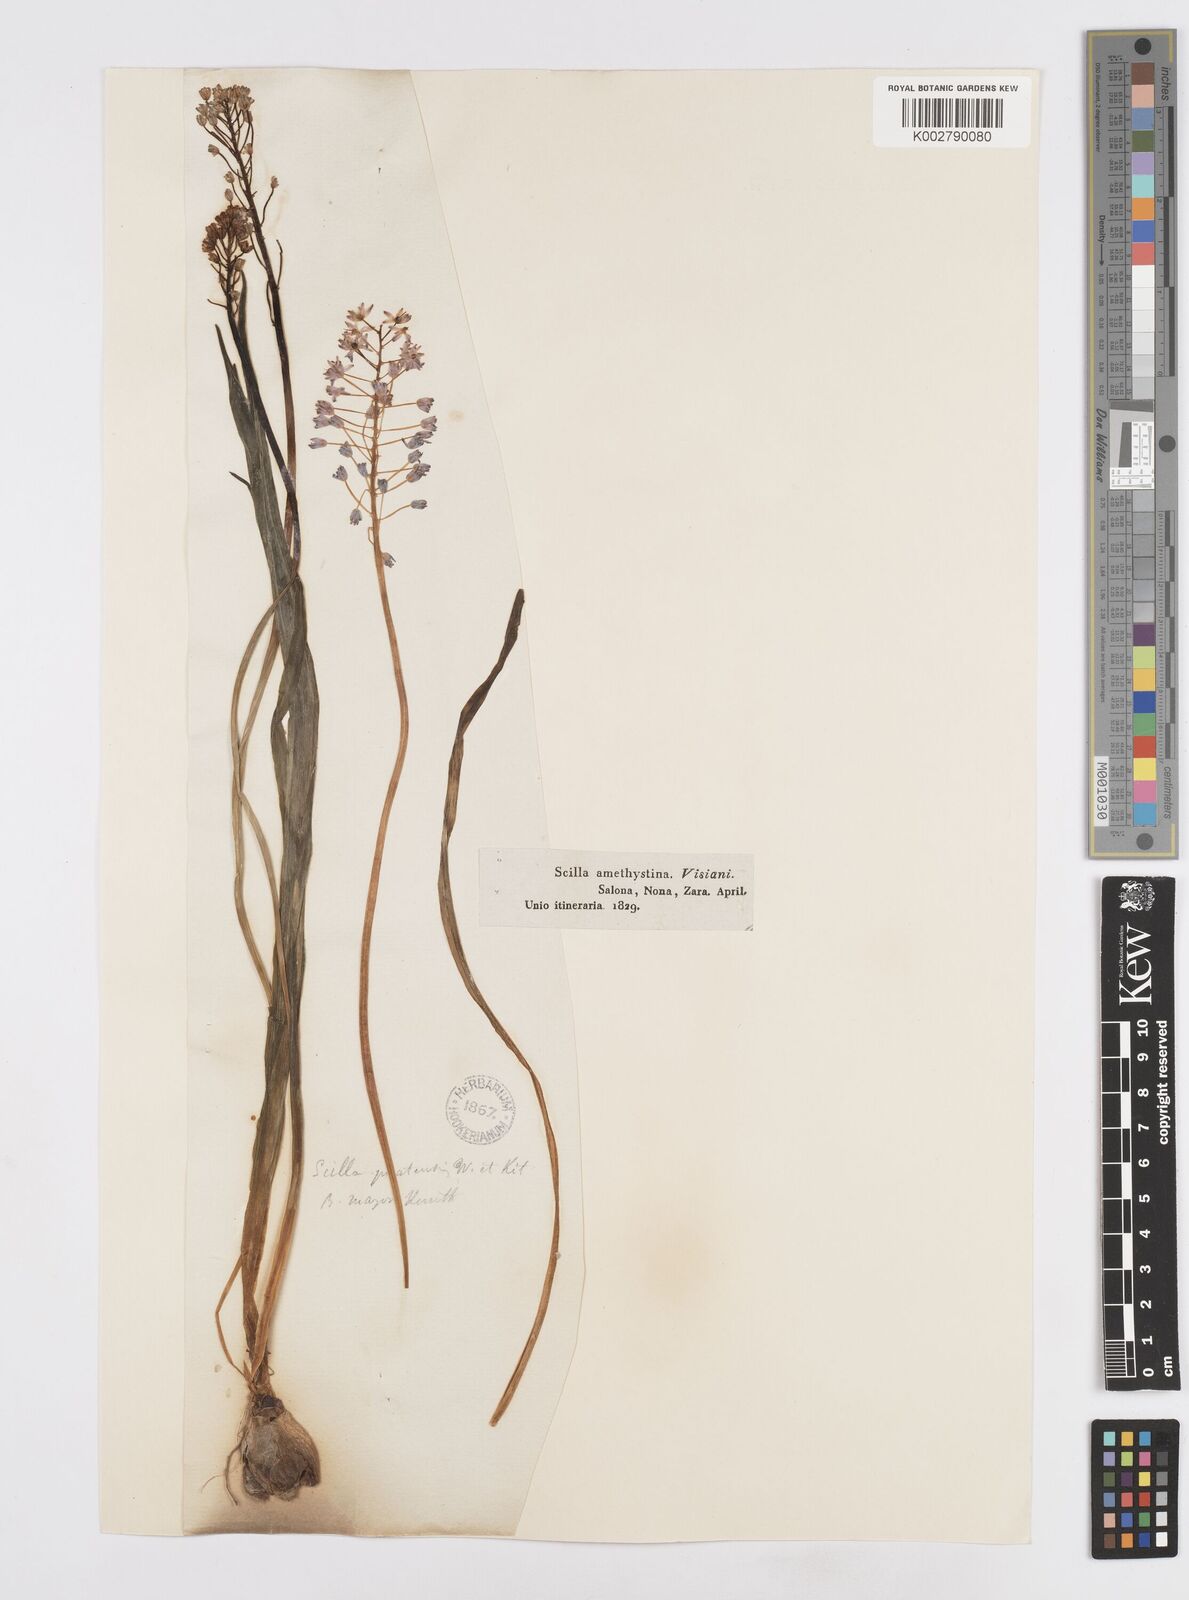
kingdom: Plantae
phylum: Tracheophyta
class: Liliopsida
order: Asparagales
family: Asparagaceae
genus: Scilla
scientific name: Scilla litardierei
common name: Amethyst meadow squill
